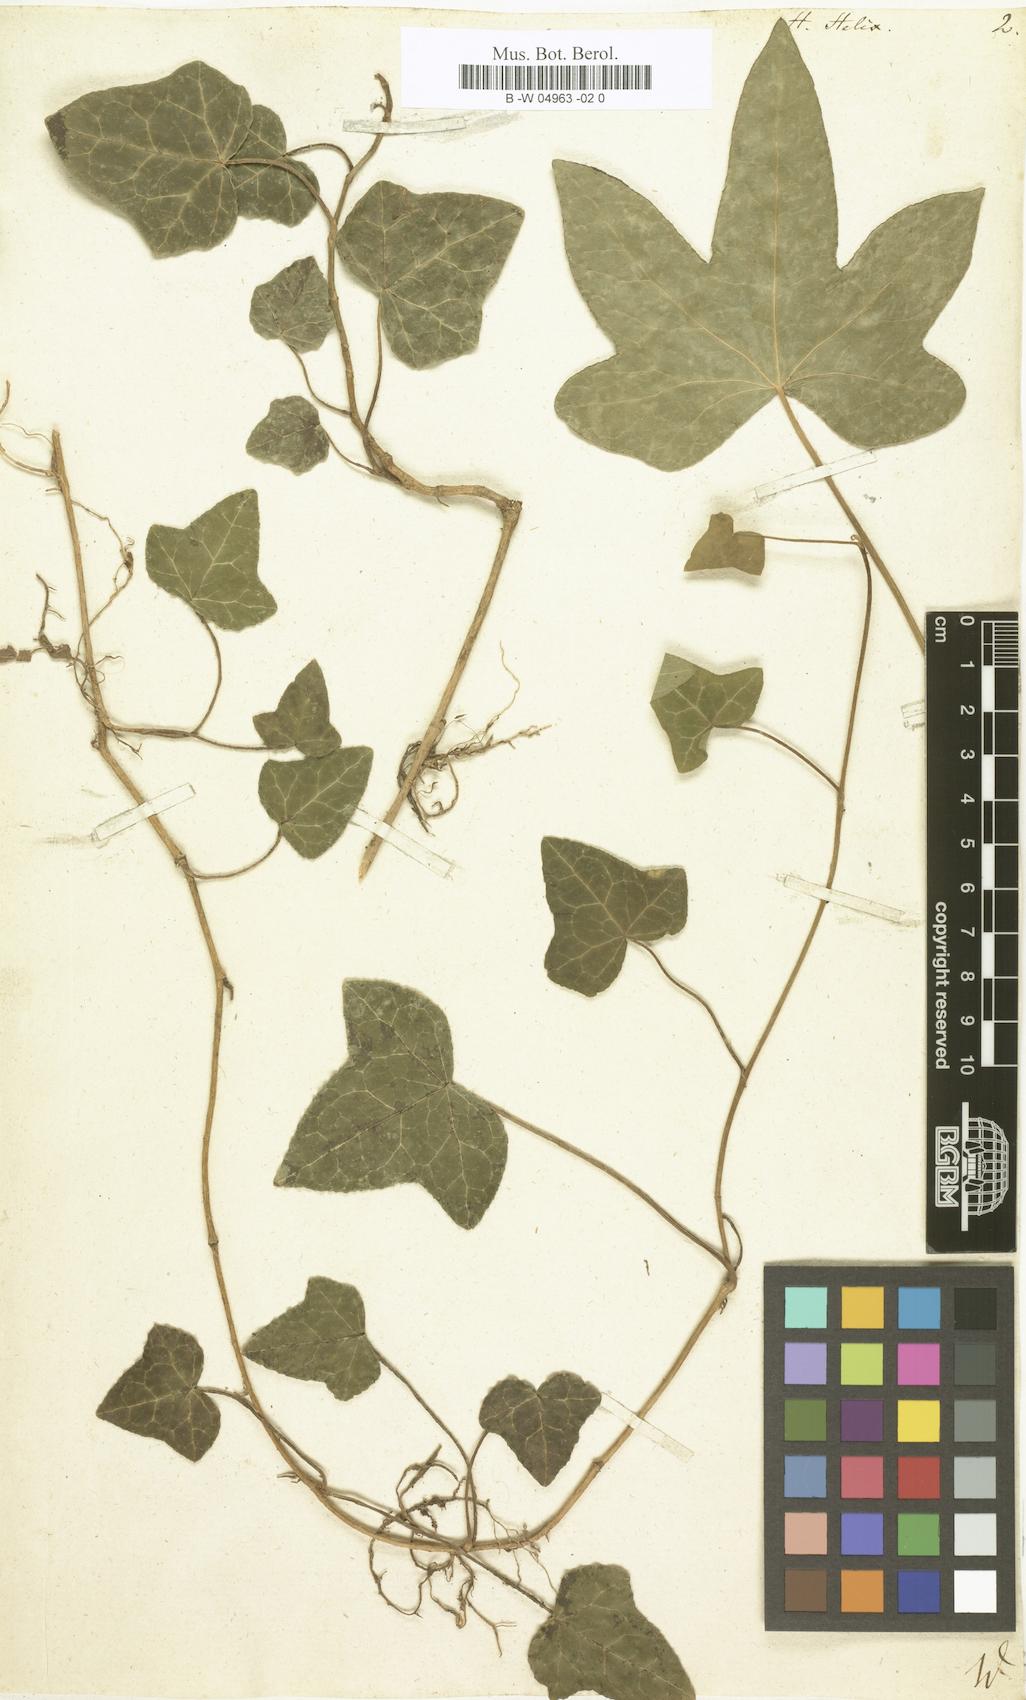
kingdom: Plantae
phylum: Tracheophyta
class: Magnoliopsida
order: Apiales
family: Araliaceae
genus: Hedera
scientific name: Hedera helix
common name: Ivy
